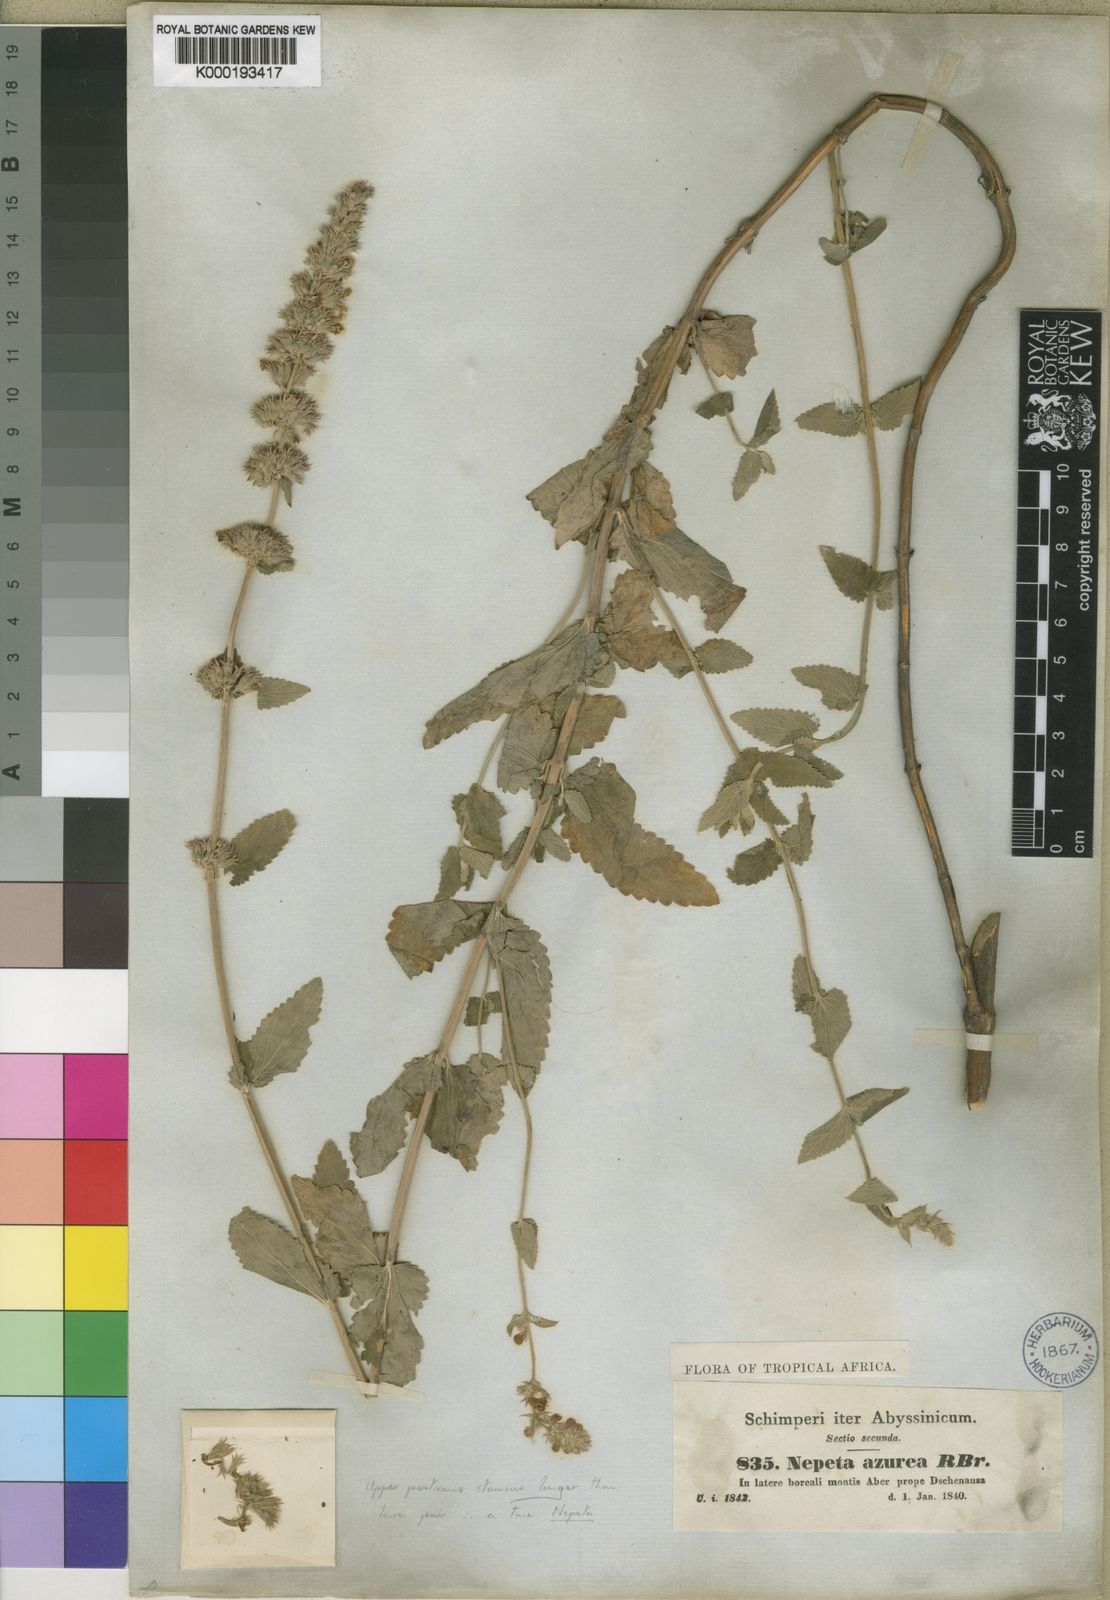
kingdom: Plantae
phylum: Tracheophyta
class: Magnoliopsida
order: Lamiales
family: Lamiaceae
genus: Nepeta
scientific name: Nepeta azurea
